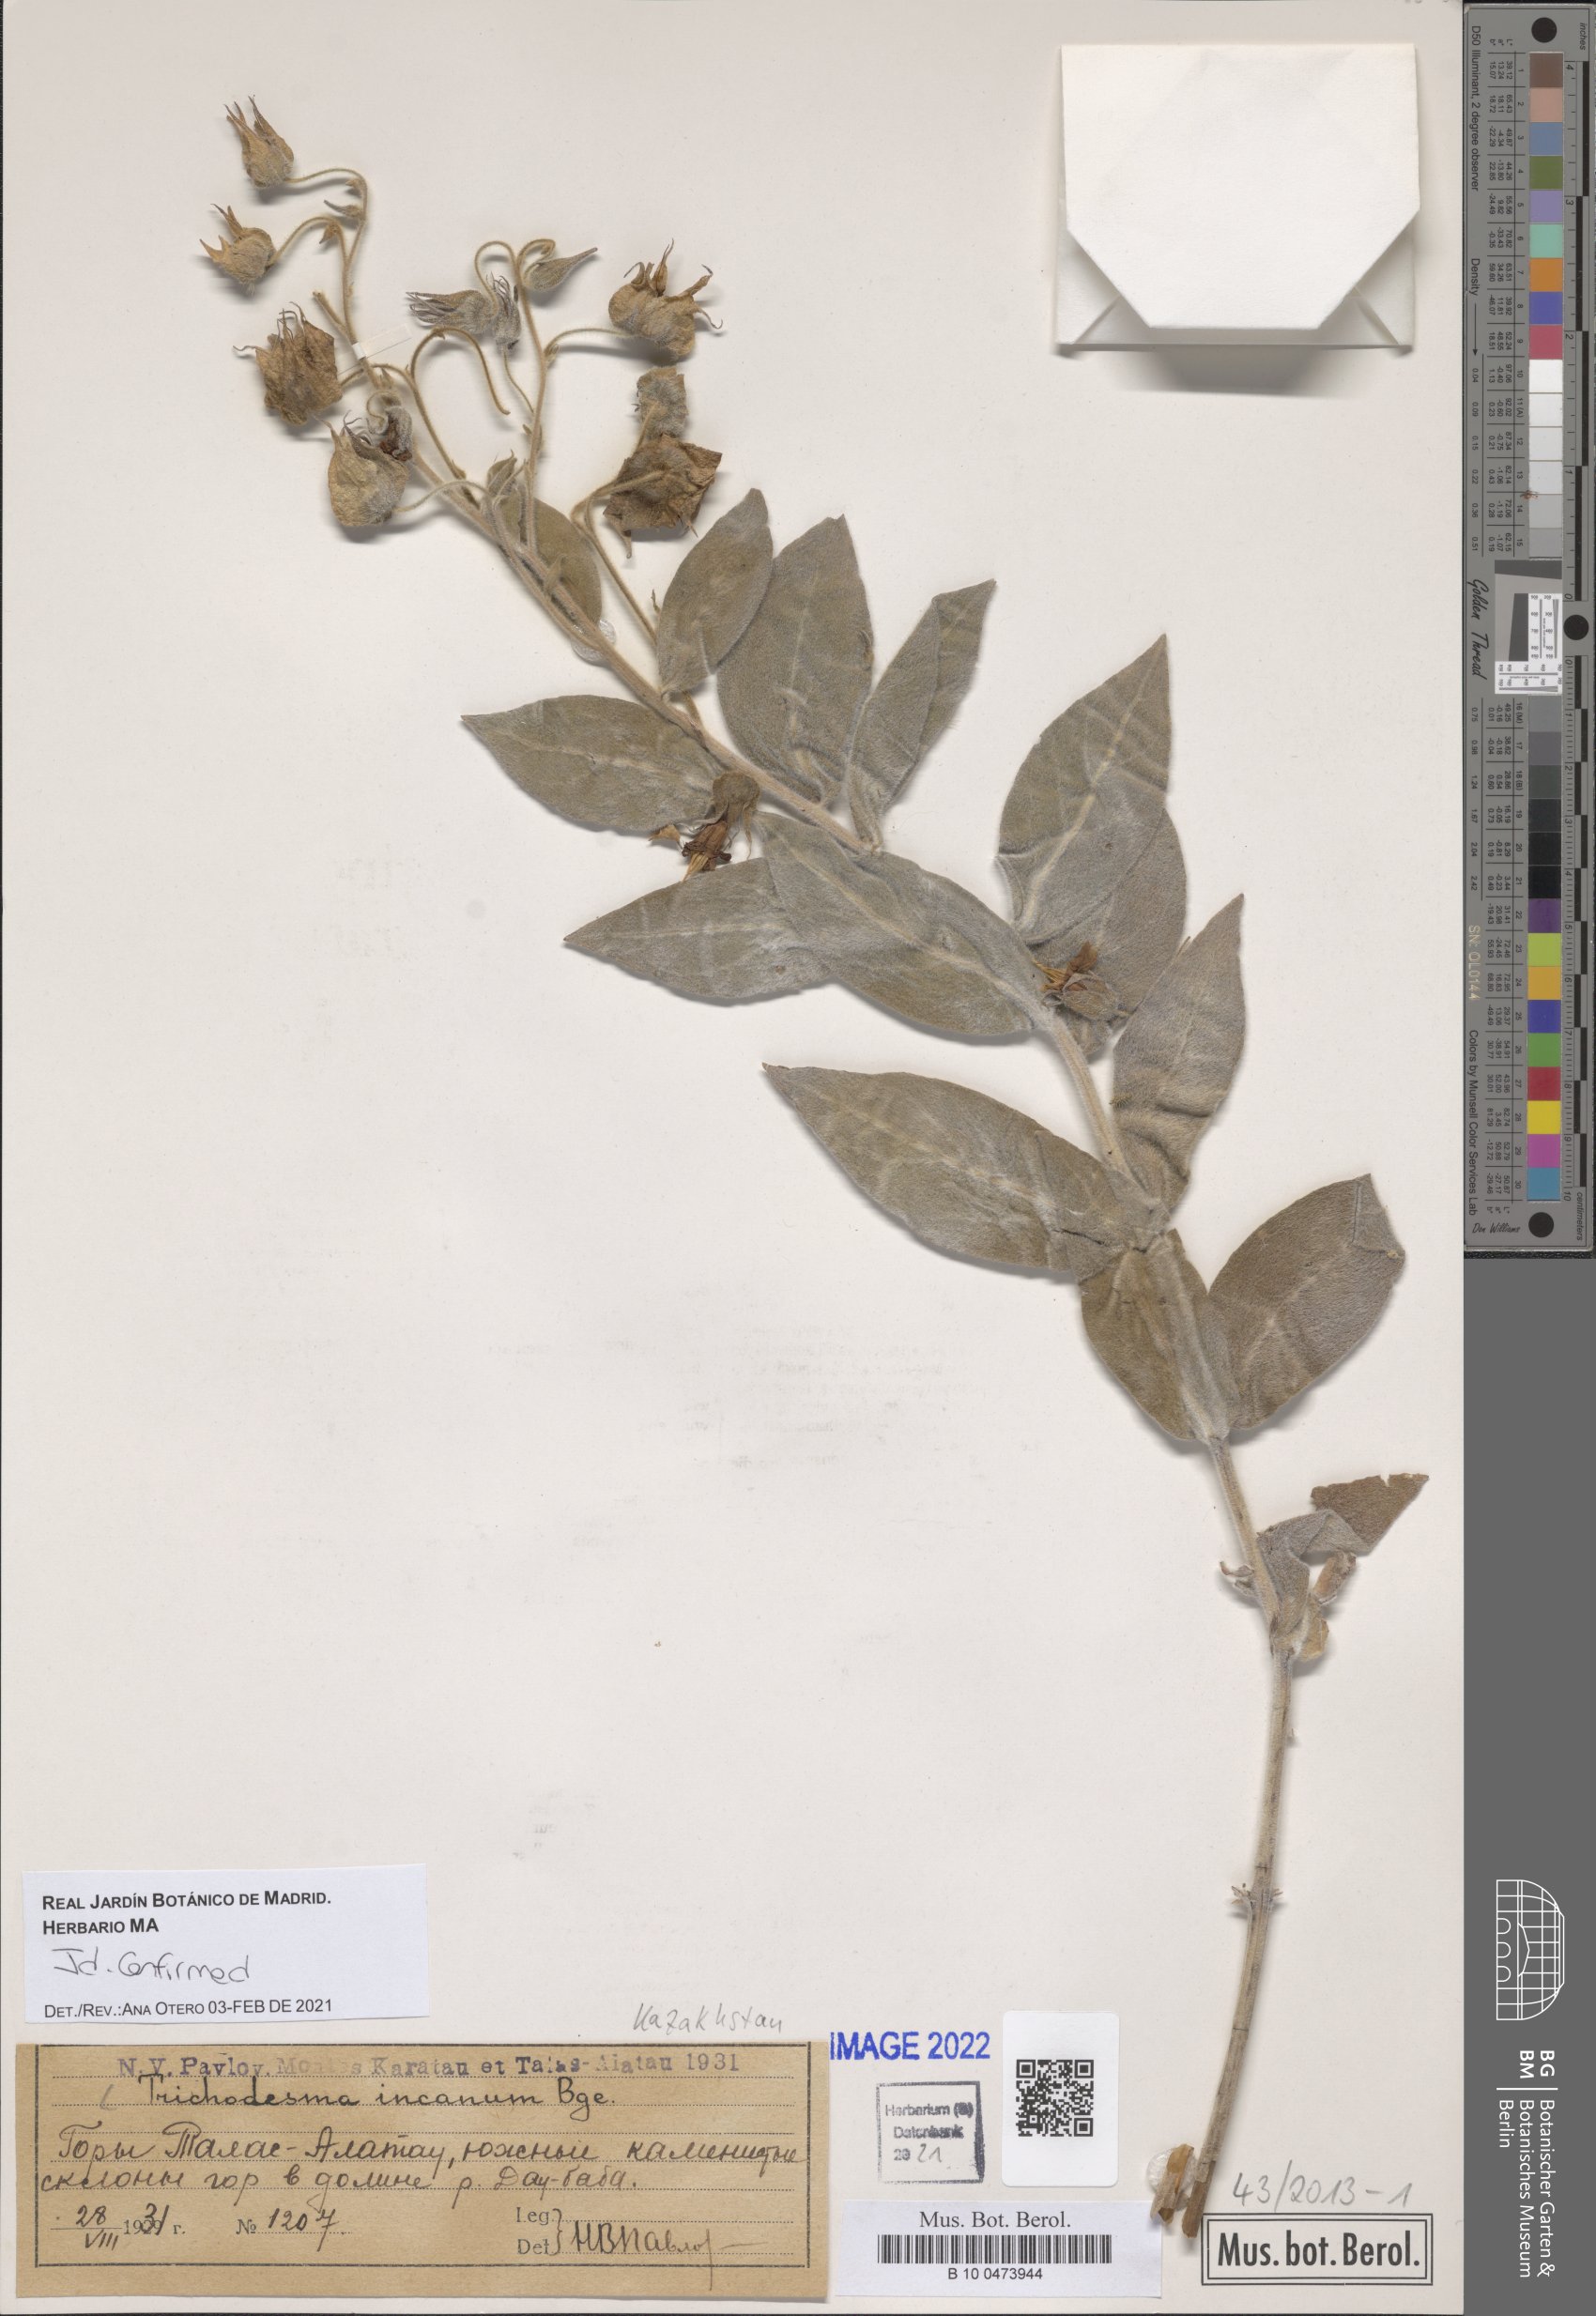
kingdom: Plantae
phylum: Tracheophyta
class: Magnoliopsida
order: Boraginales
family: Boraginaceae
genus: Trichodesma
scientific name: Trichodesma incanum
